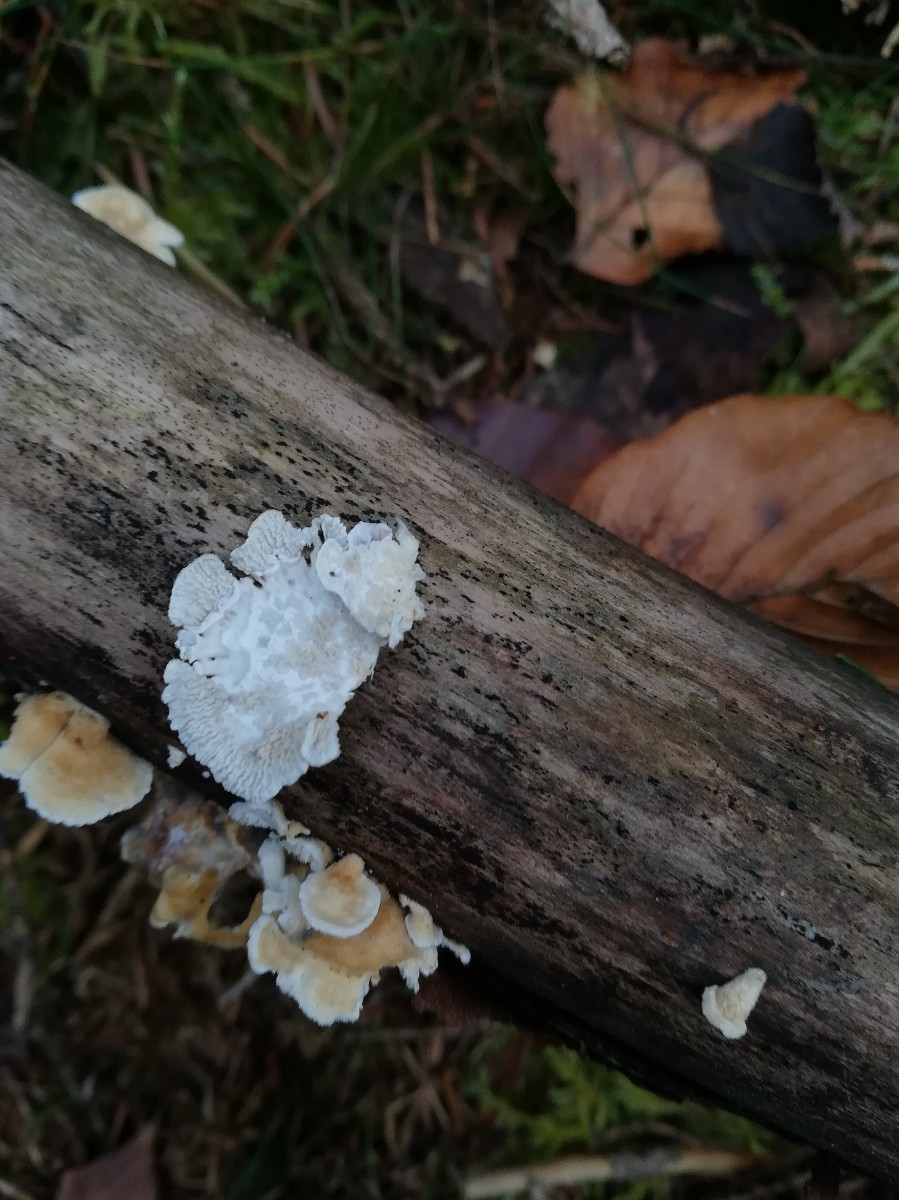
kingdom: Fungi
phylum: Basidiomycota
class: Agaricomycetes
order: Amylocorticiales
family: Amylocorticiaceae
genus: Plicaturopsis
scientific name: Plicaturopsis crispa
